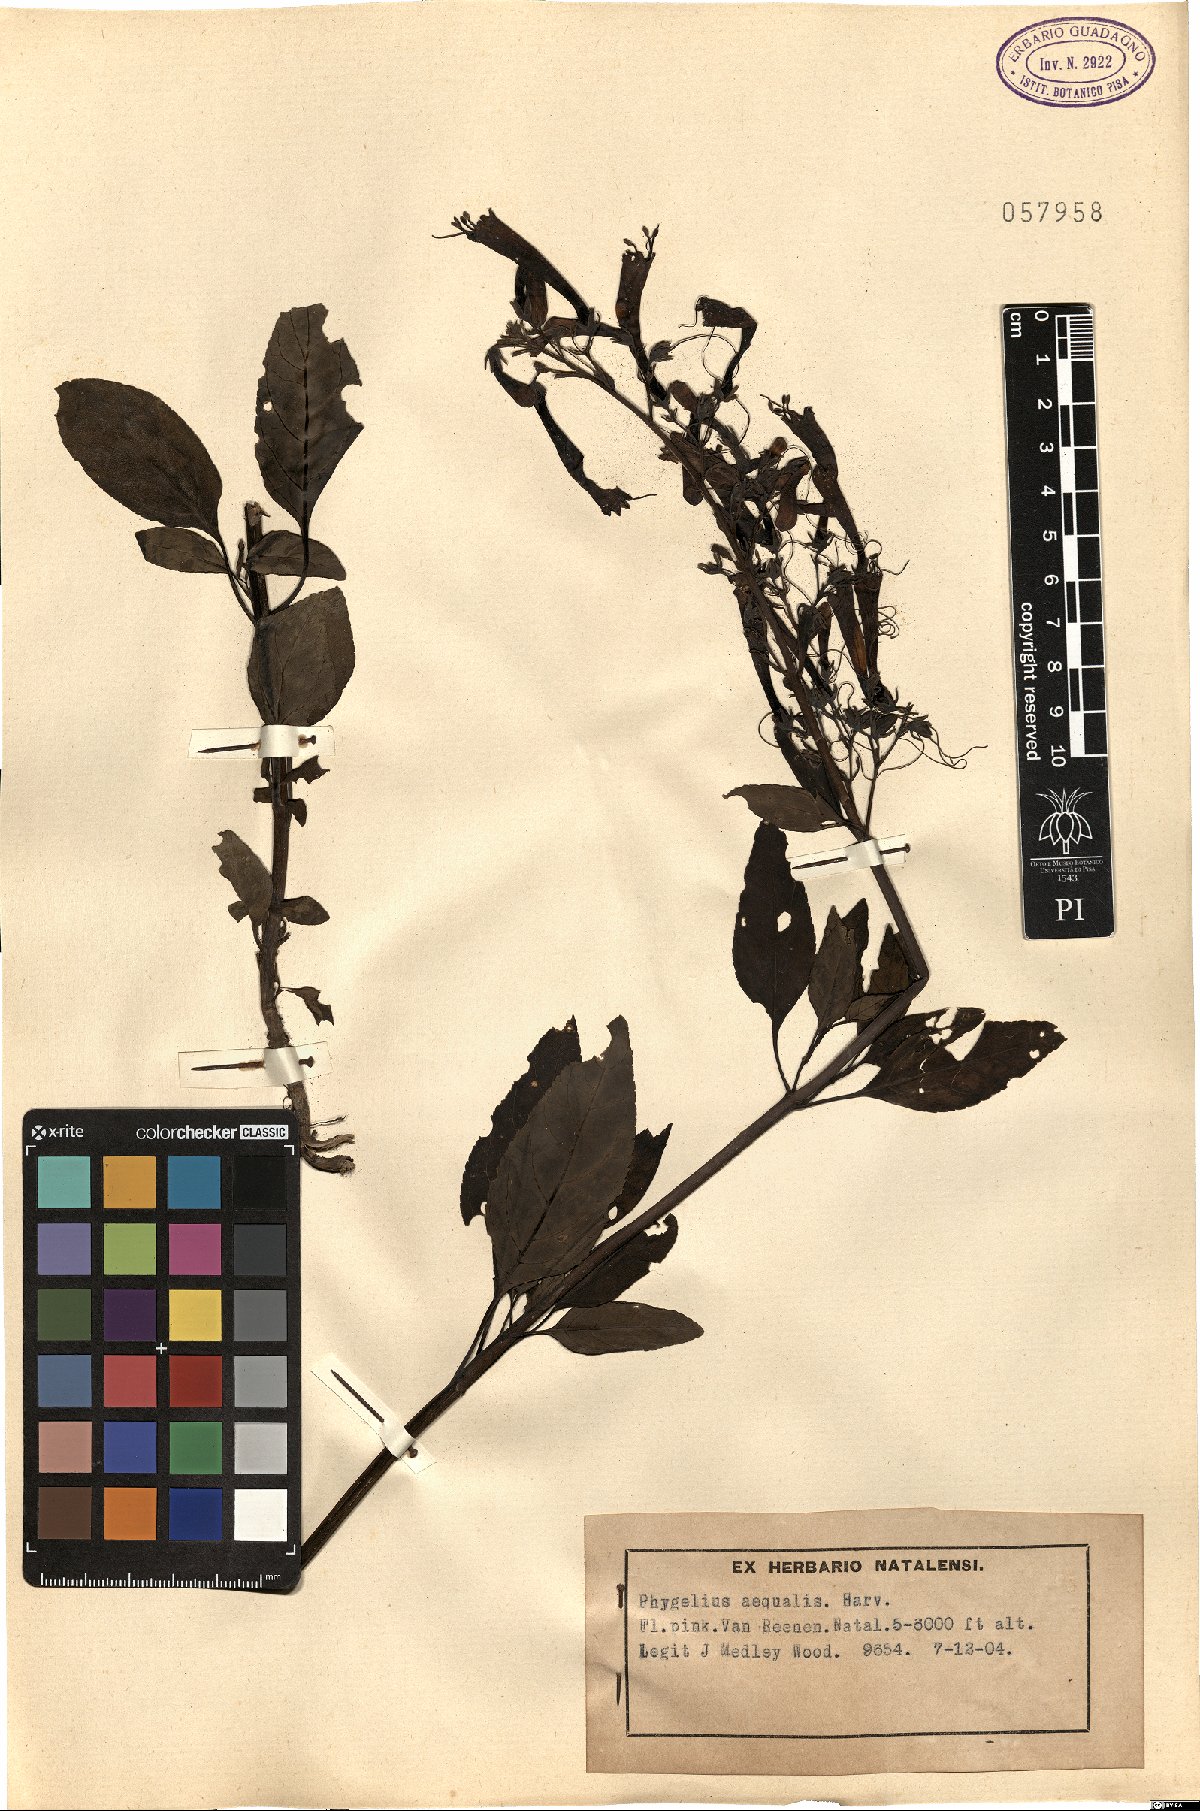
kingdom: Plantae
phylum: Tracheophyta
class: Magnoliopsida
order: Lamiales
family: Scrophulariaceae
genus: Phygelius
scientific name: Phygelius aequalis
